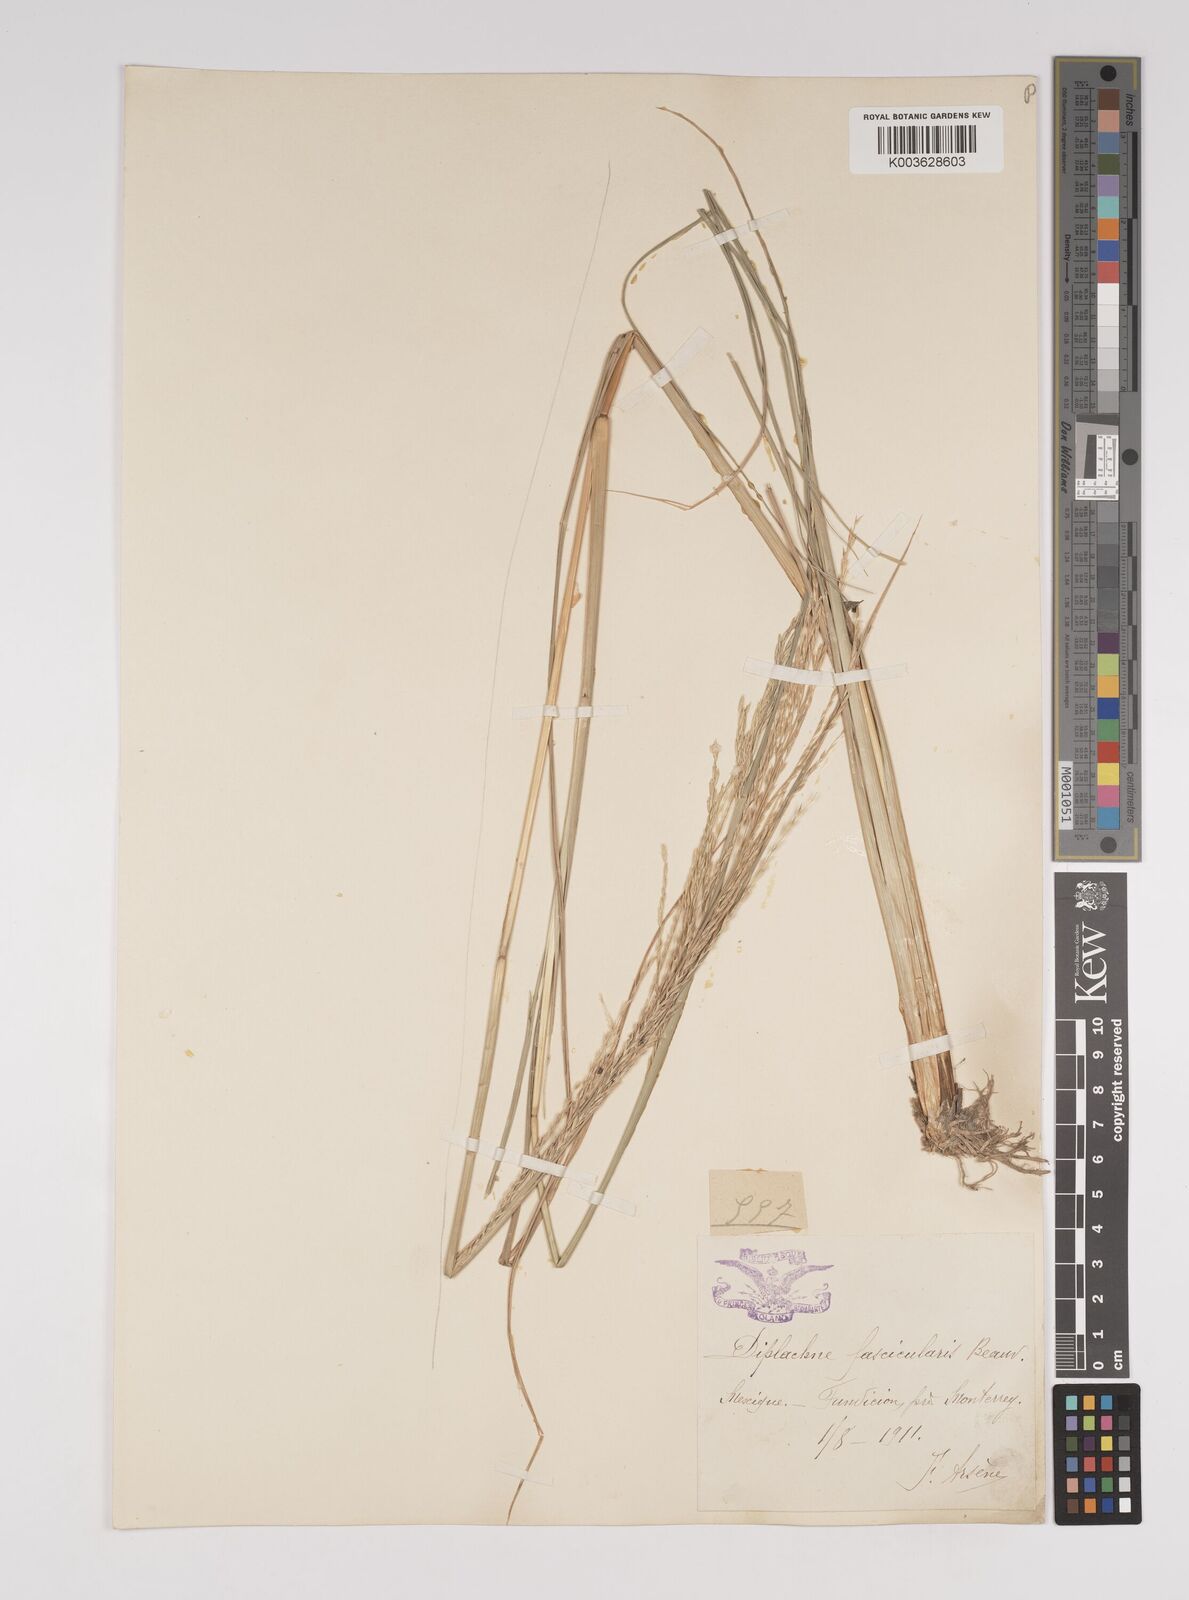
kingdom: Plantae
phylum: Tracheophyta
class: Liliopsida
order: Poales
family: Poaceae
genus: Diplachne
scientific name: Diplachne fusca
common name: Brown beetle grass
